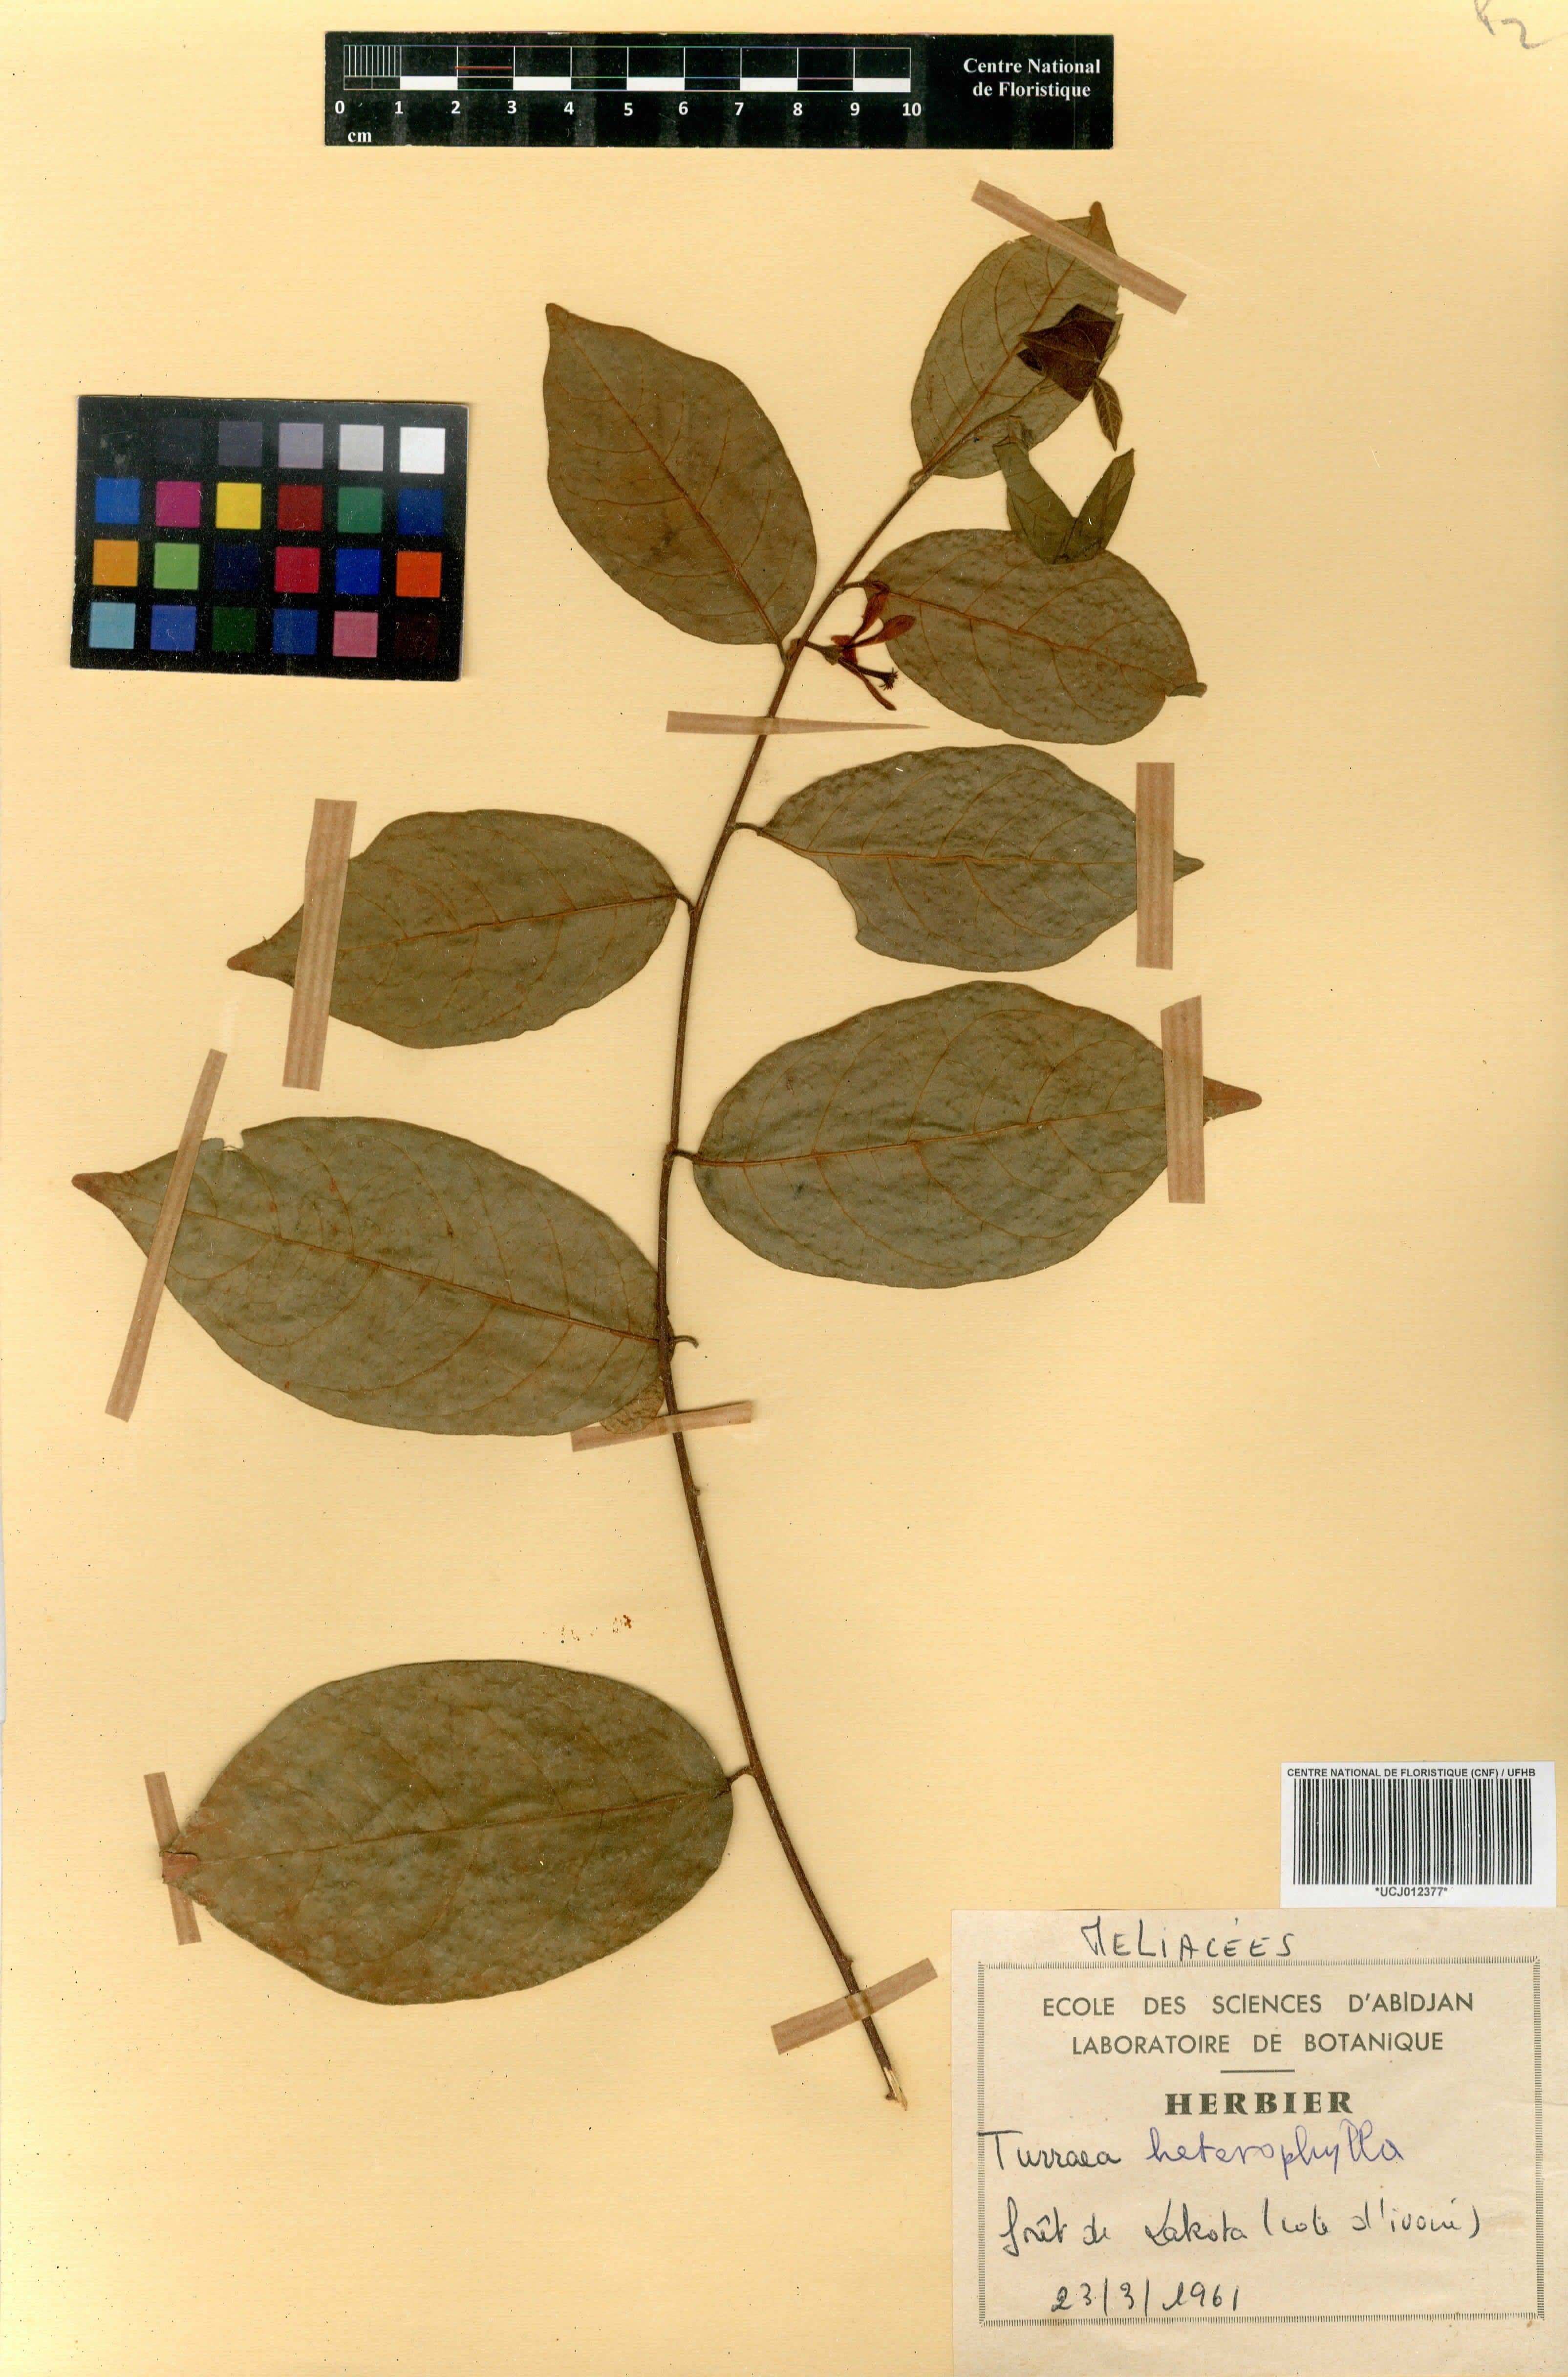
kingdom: Plantae
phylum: Tracheophyta
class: Magnoliopsida
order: Sapindales
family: Meliaceae
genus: Turraea
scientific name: Turraea heterophylla
